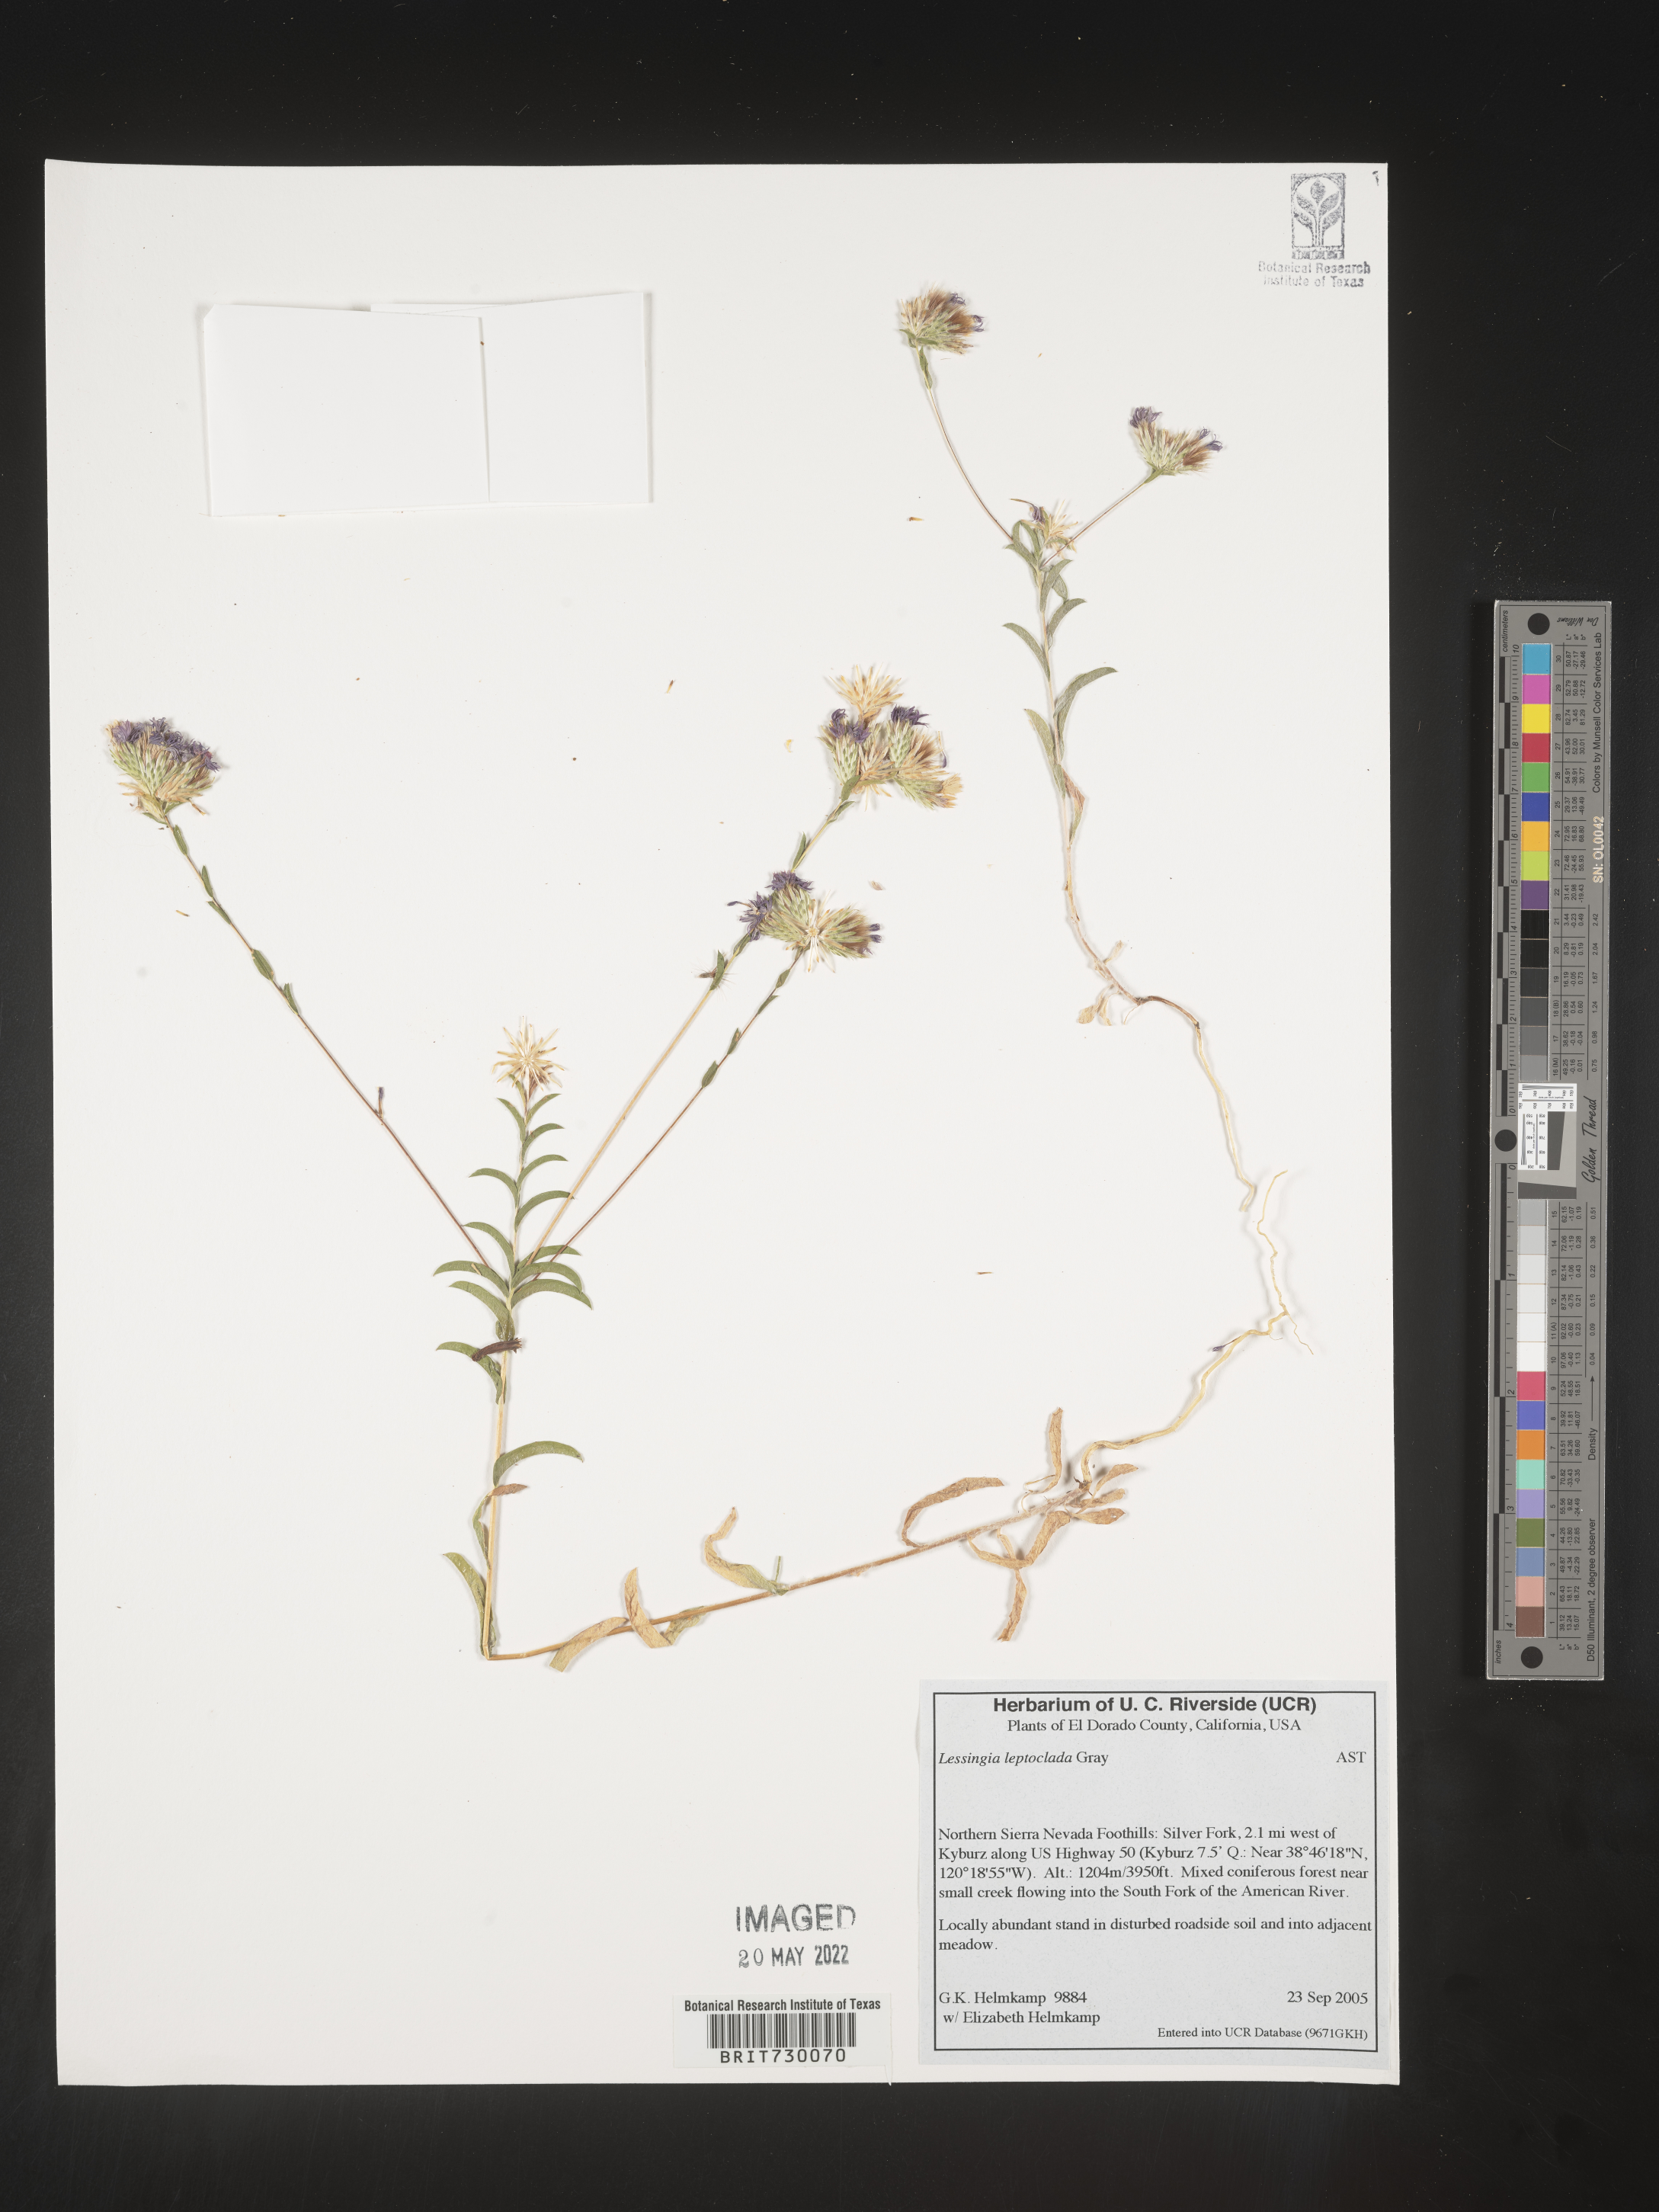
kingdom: Plantae
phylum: Tracheophyta
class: Magnoliopsida
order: Asterales
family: Asteraceae
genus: Lessingia
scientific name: Lessingia
